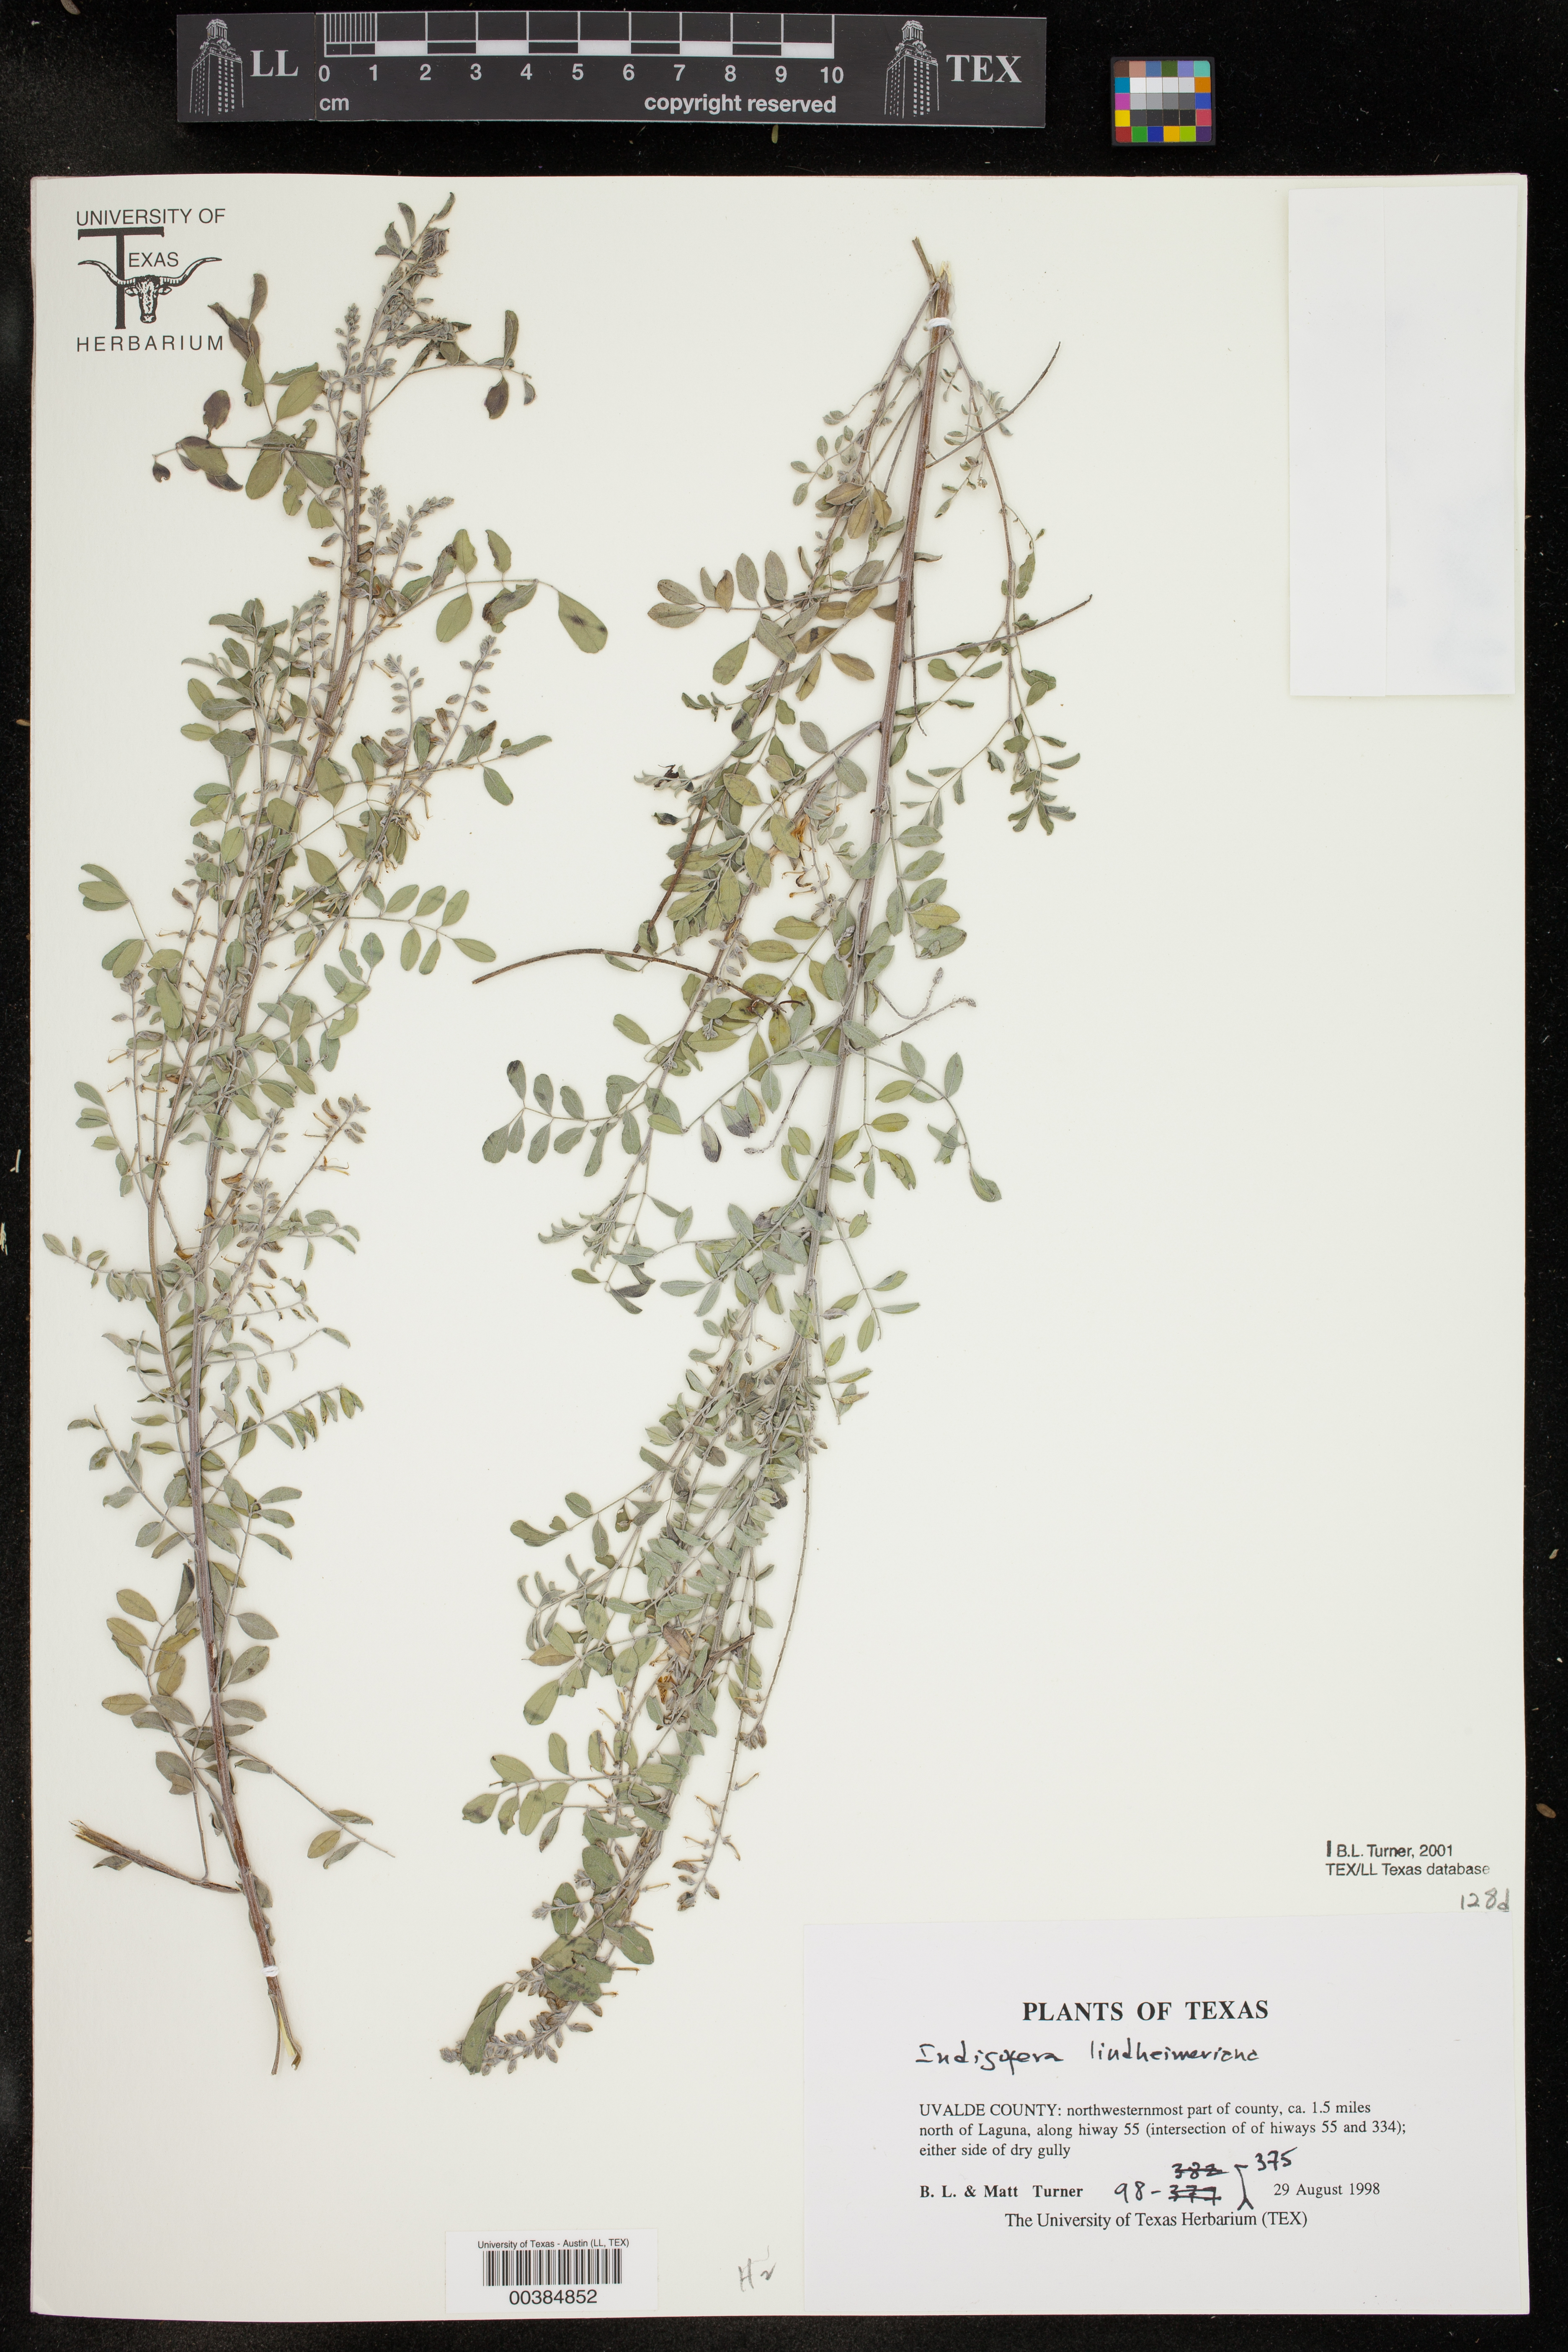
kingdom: Plantae
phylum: Tracheophyta
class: Magnoliopsida
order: Fabales
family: Fabaceae
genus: Indigofera
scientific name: Indigofera lindheimeriana
